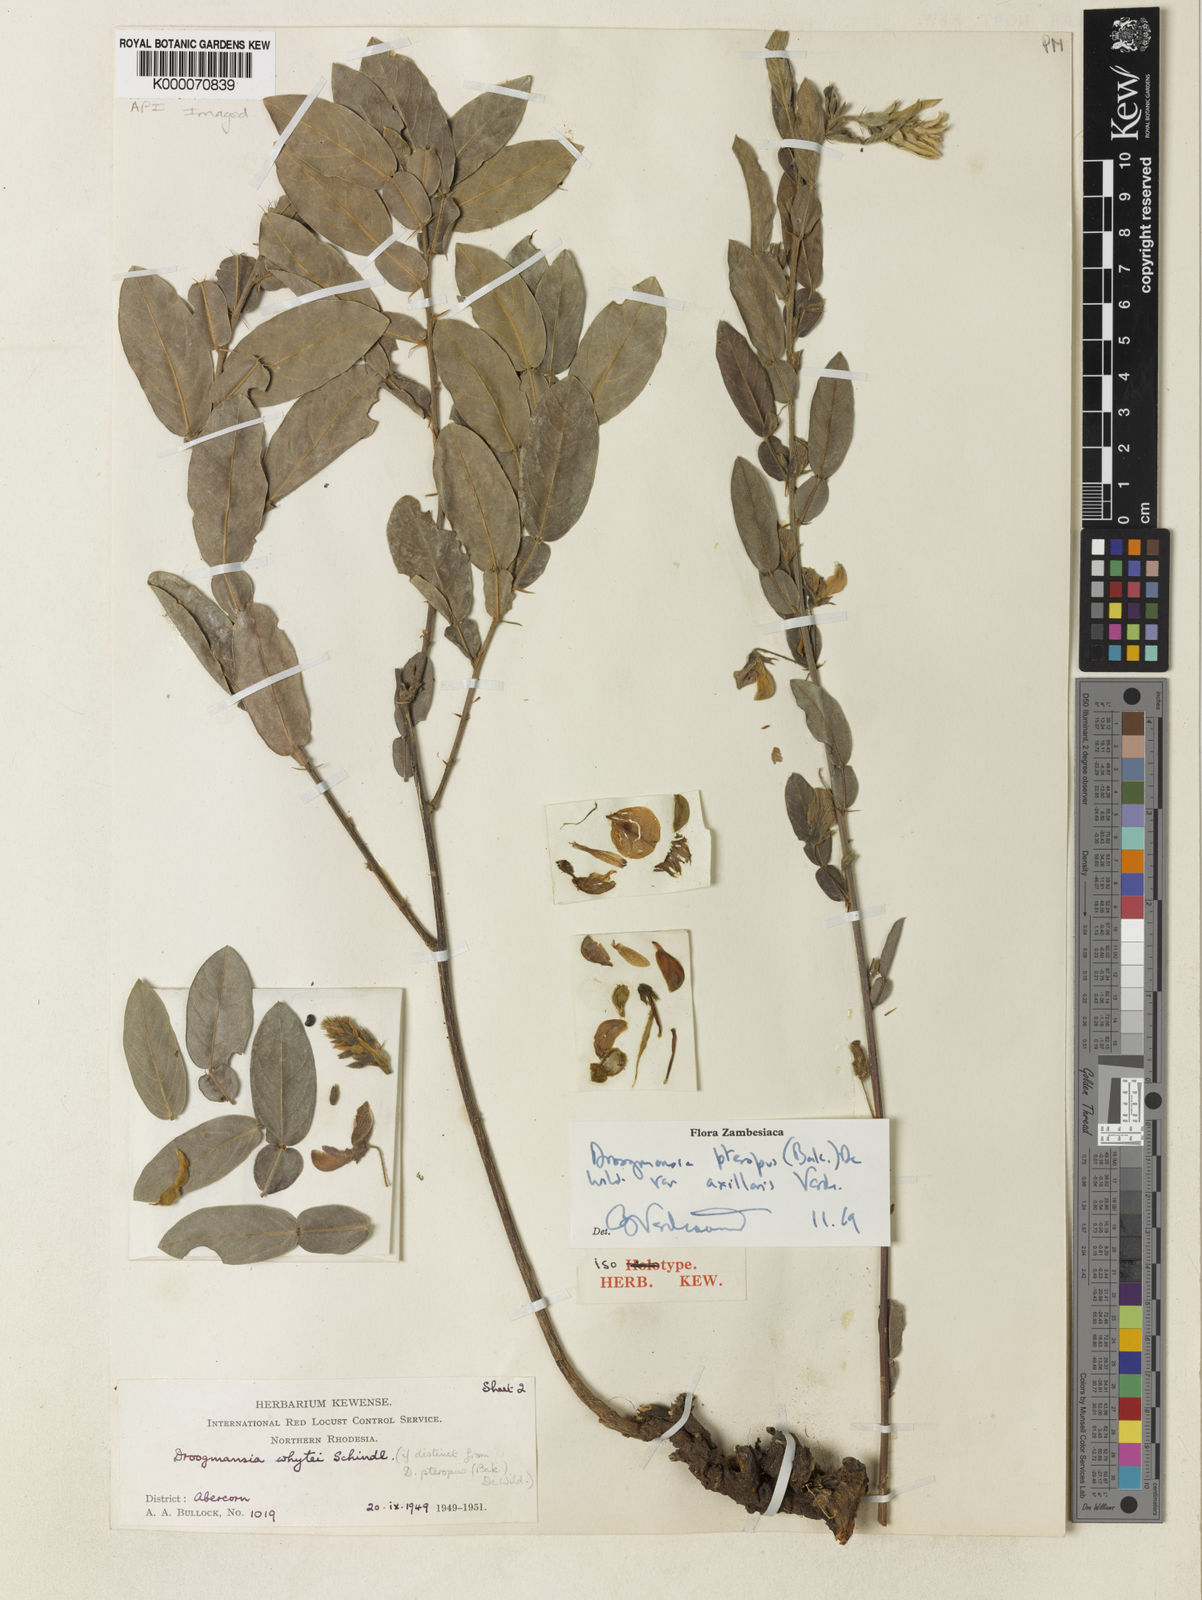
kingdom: Plantae
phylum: Tracheophyta
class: Magnoliopsida
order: Fabales
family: Fabaceae
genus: Droogmansia
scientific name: Droogmansia pteropus
